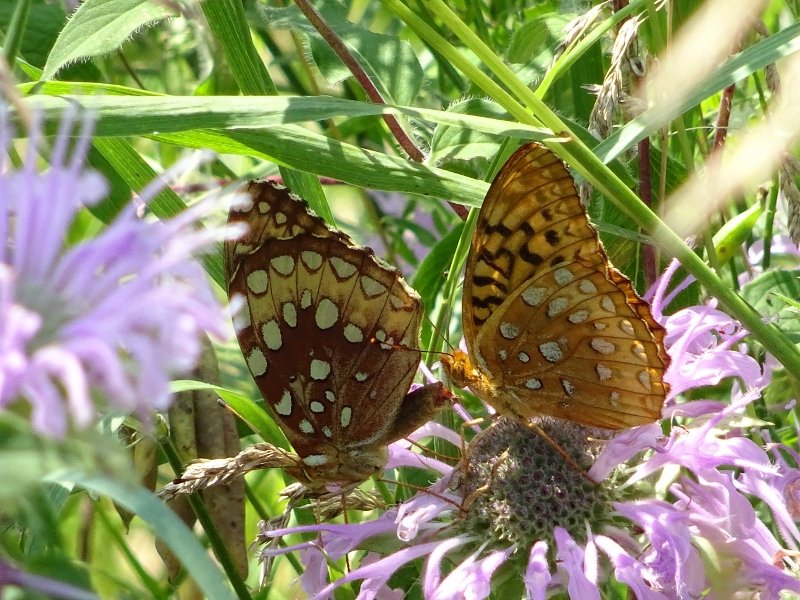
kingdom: Animalia
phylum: Arthropoda
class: Insecta
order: Lepidoptera
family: Nymphalidae
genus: Speyeria
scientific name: Speyeria cybele
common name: Great Spangled Fritillary
